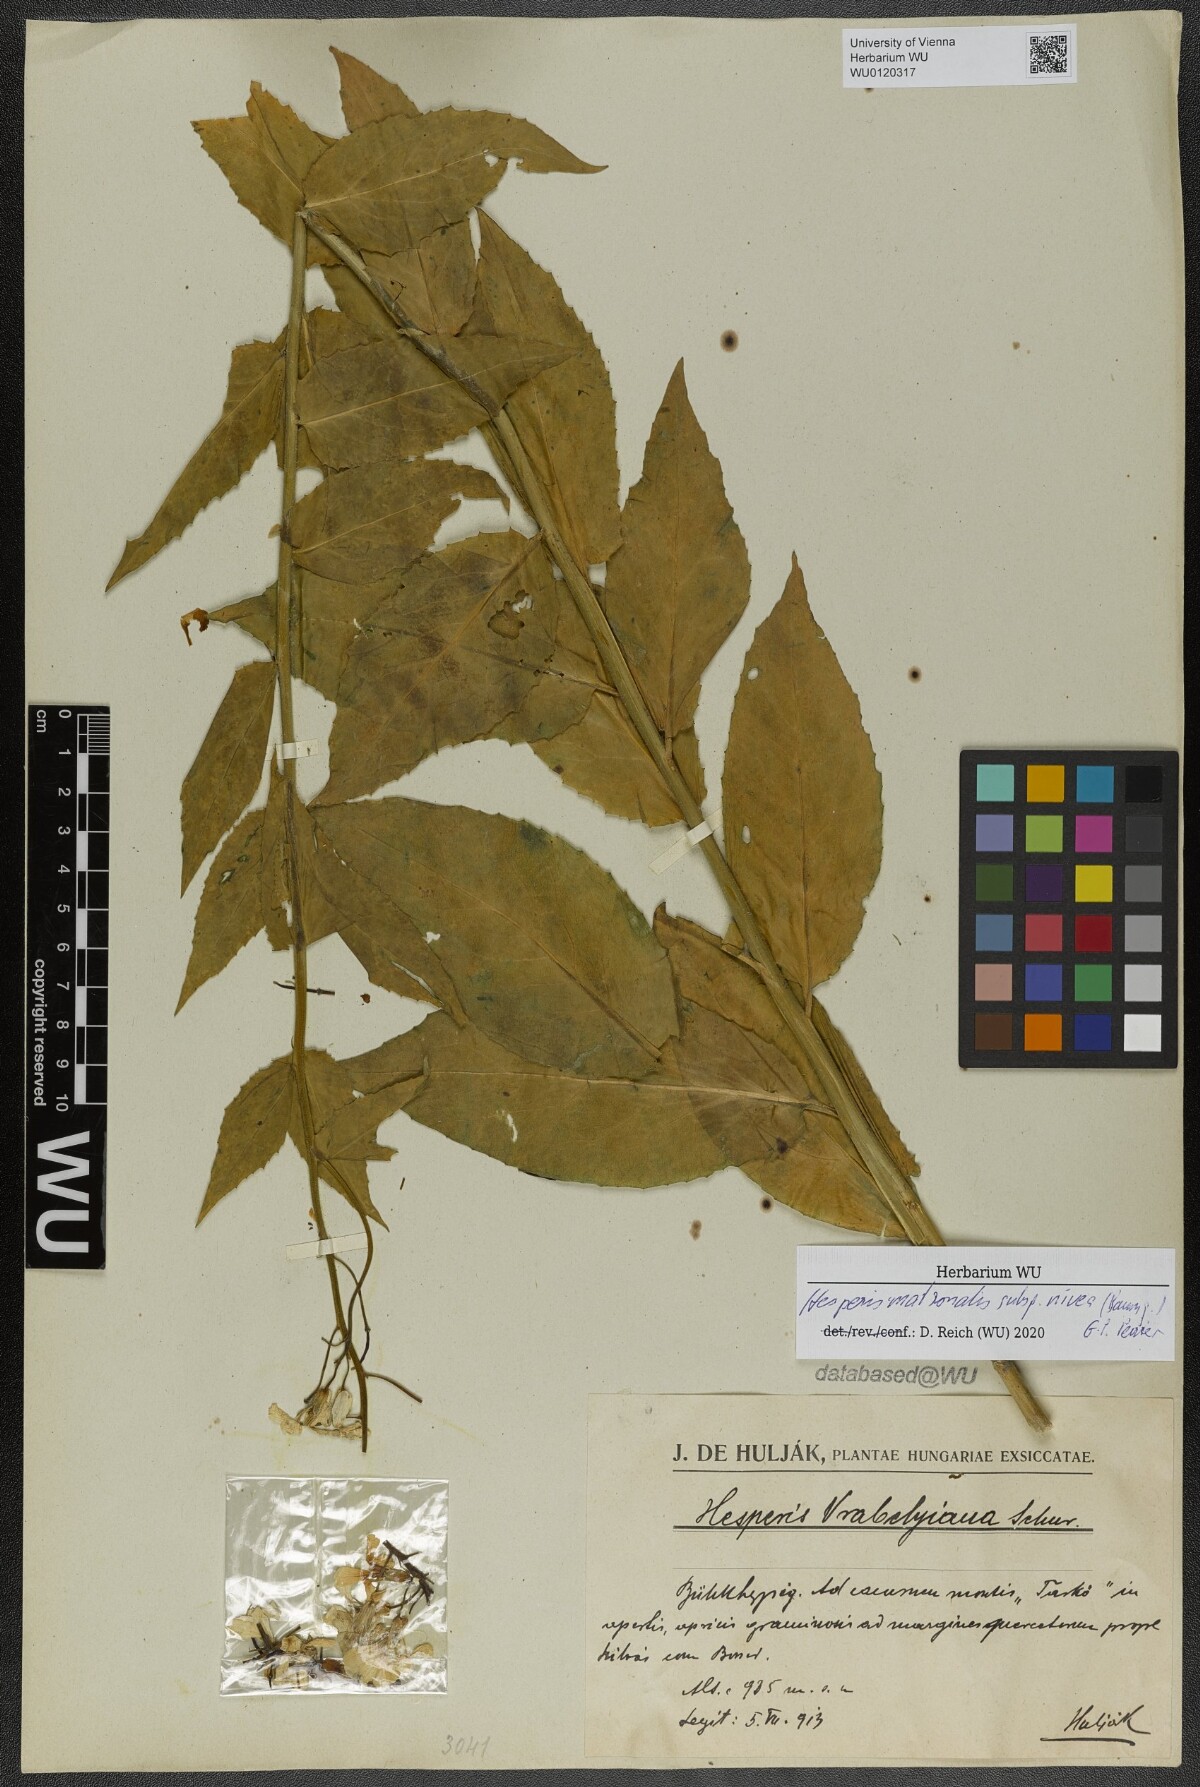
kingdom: Plantae
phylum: Tracheophyta
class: Magnoliopsida
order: Brassicales
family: Brassicaceae
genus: Hesperis
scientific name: Hesperis matronalis
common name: Dame's-violet
